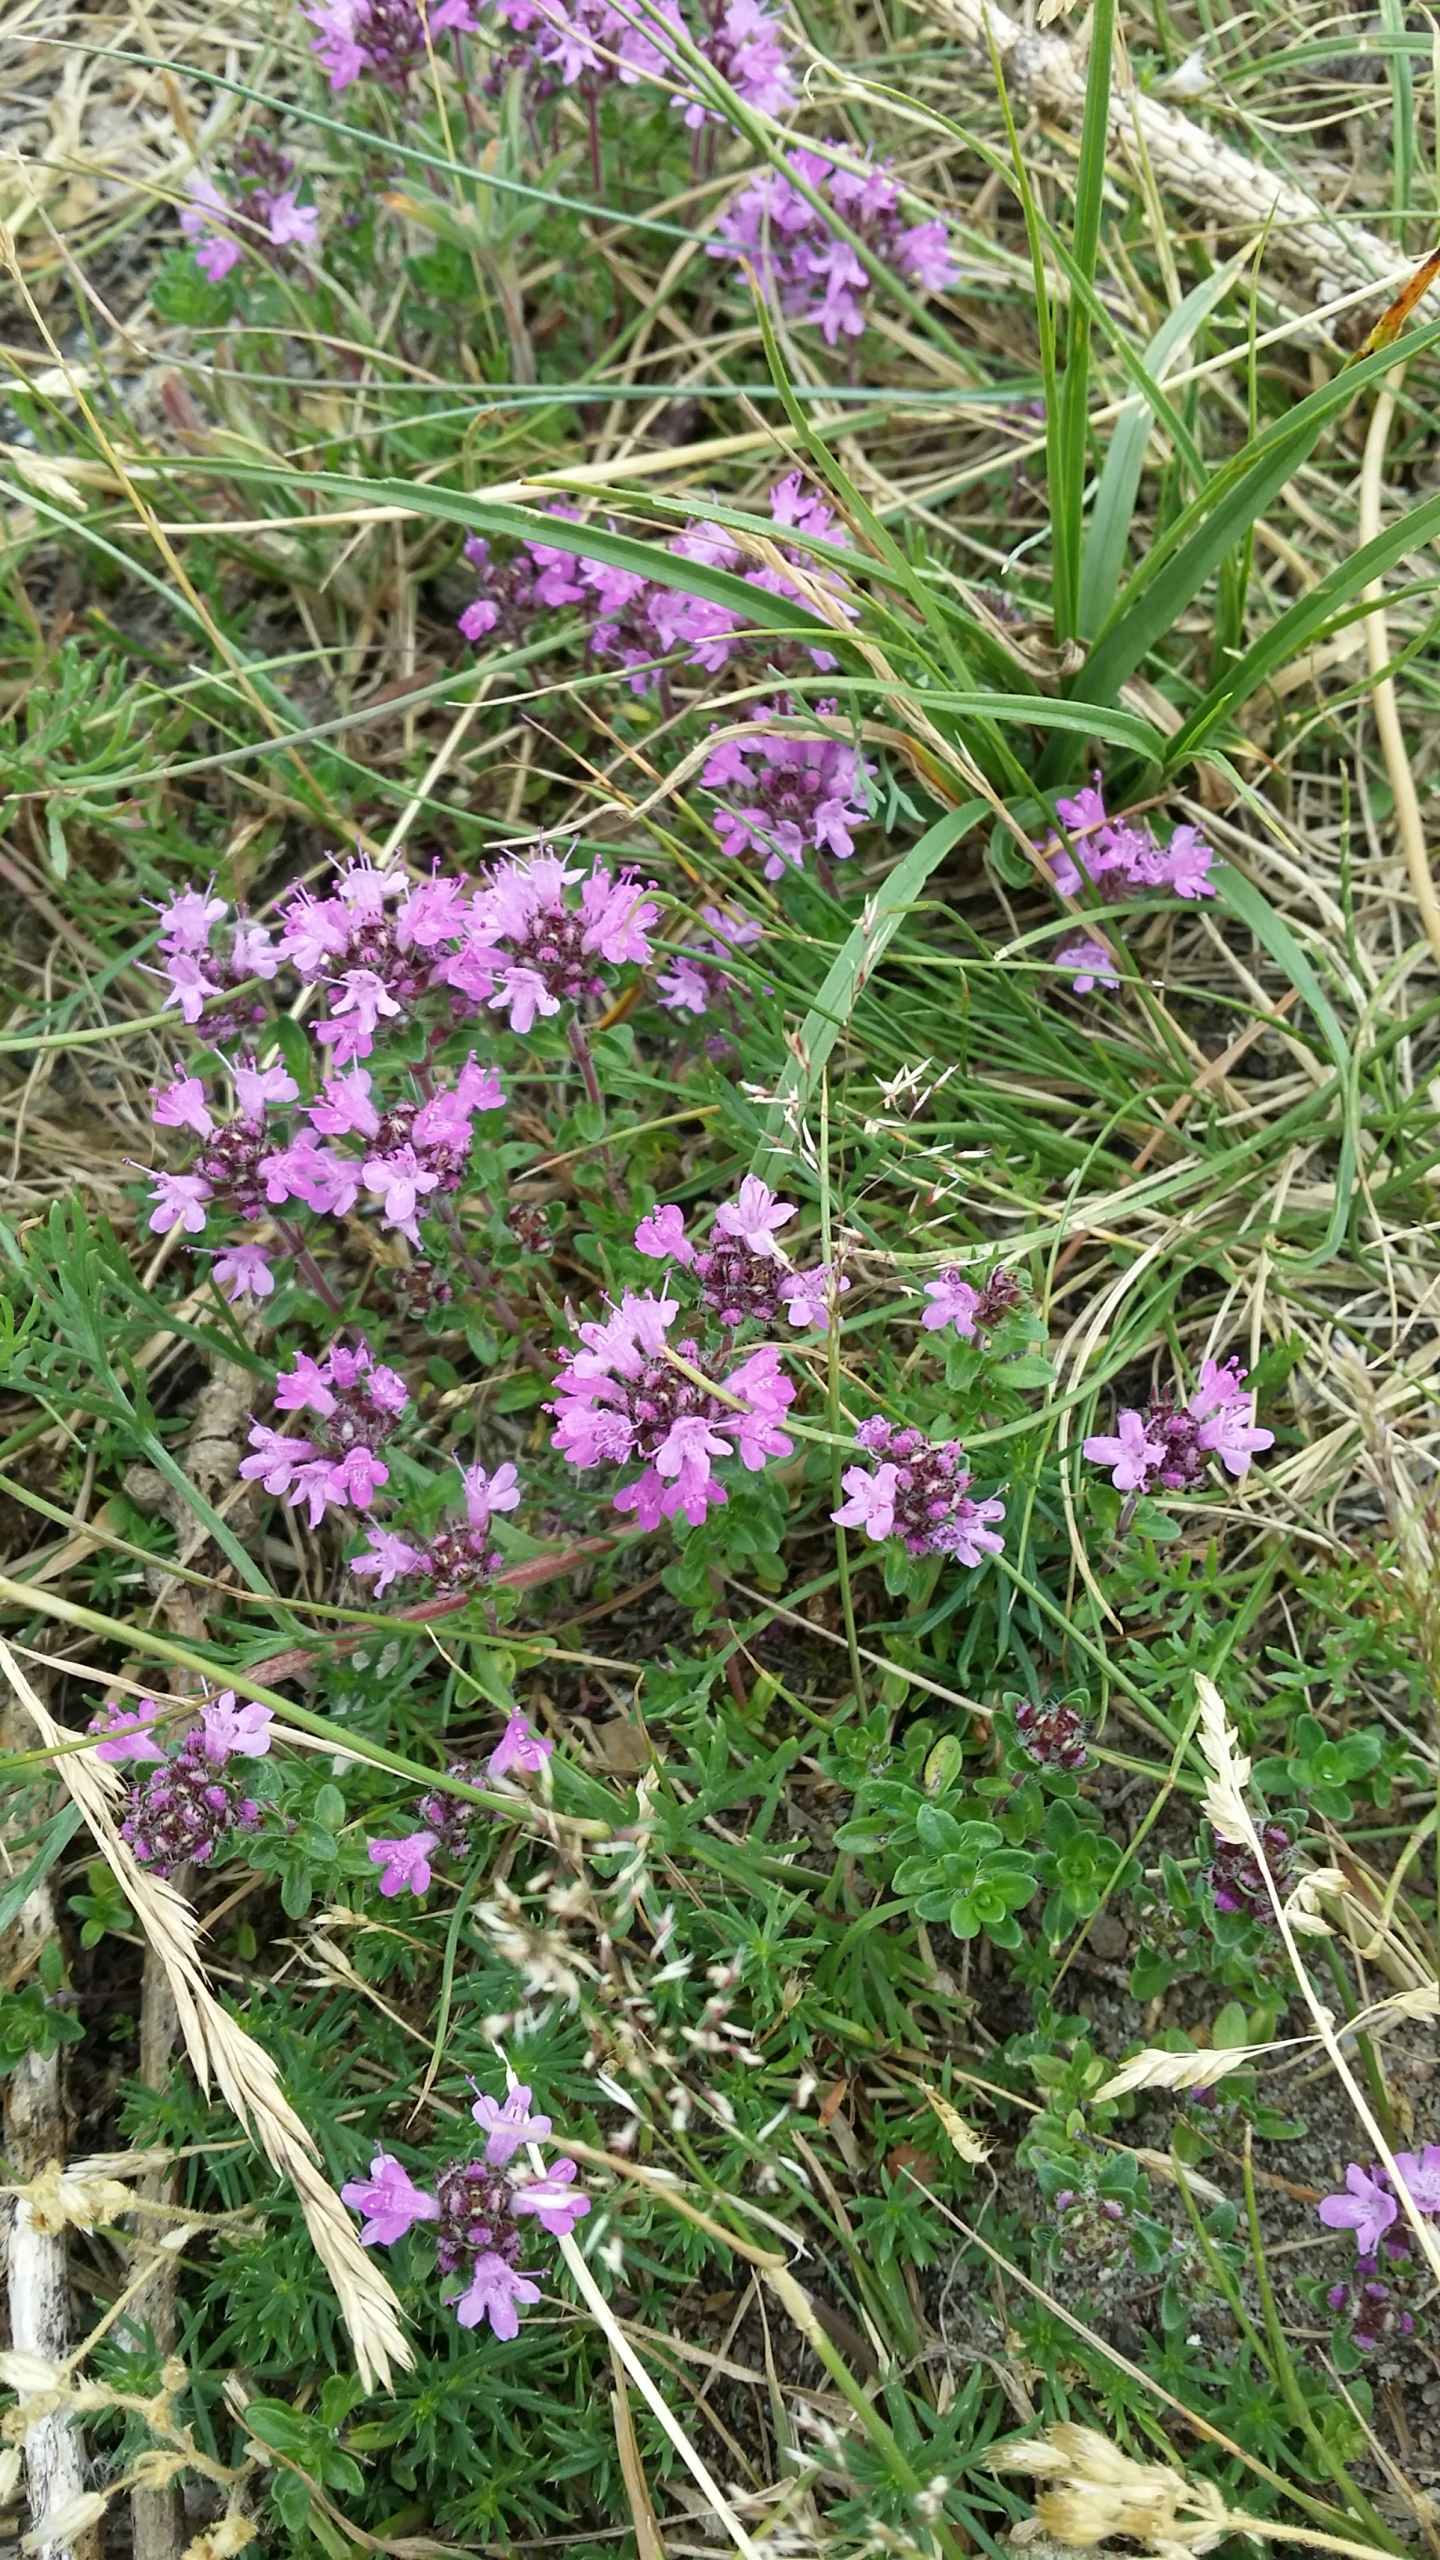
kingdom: Plantae
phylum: Tracheophyta
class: Magnoliopsida
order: Lamiales
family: Lamiaceae
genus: Thymus
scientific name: Thymus serpyllum
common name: Smalbladet timian
